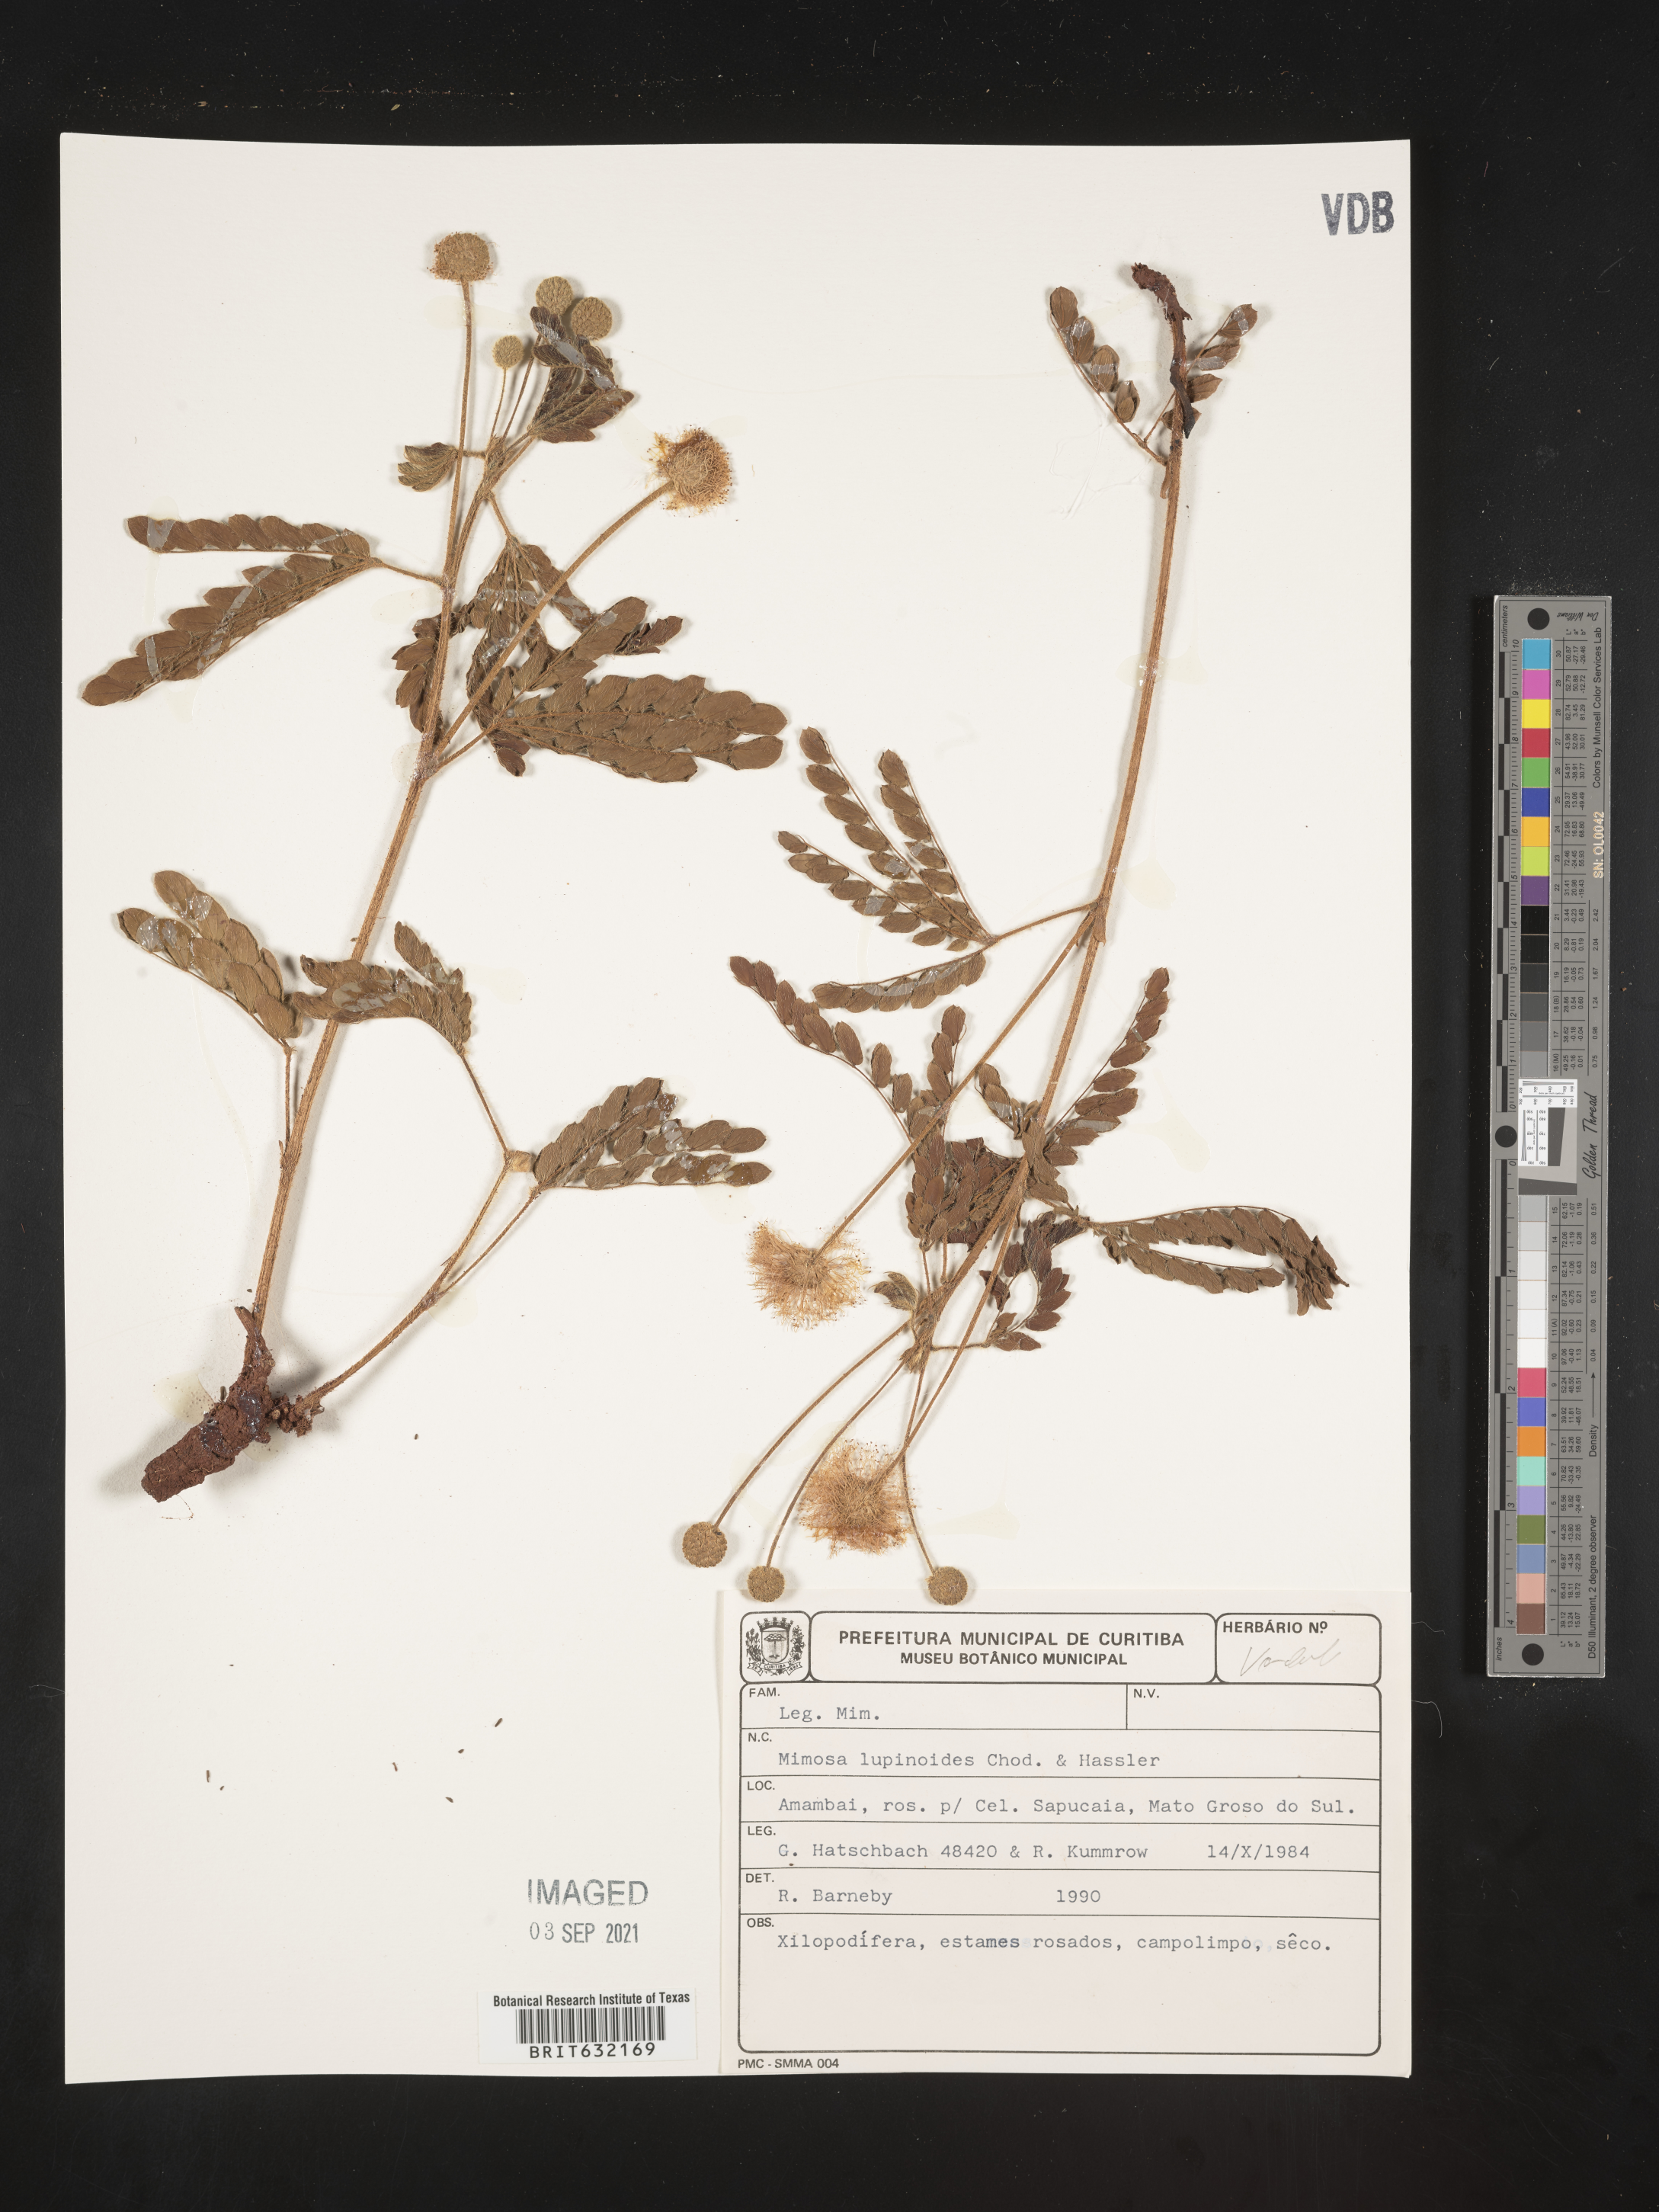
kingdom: Plantae
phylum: Tracheophyta
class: Magnoliopsida
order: Fabales
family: Fabaceae
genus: Mimosa
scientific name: Mimosa
